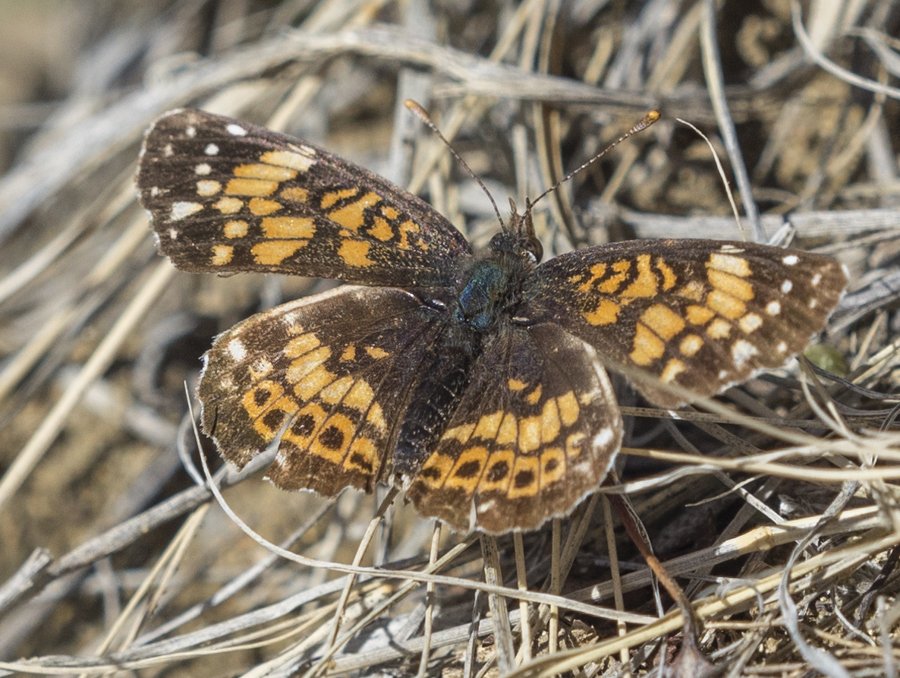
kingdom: Animalia
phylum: Arthropoda
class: Insecta
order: Lepidoptera
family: Nymphalidae
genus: Chlosyne
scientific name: Chlosyne gorgone
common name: Gorgone Checkerspot
